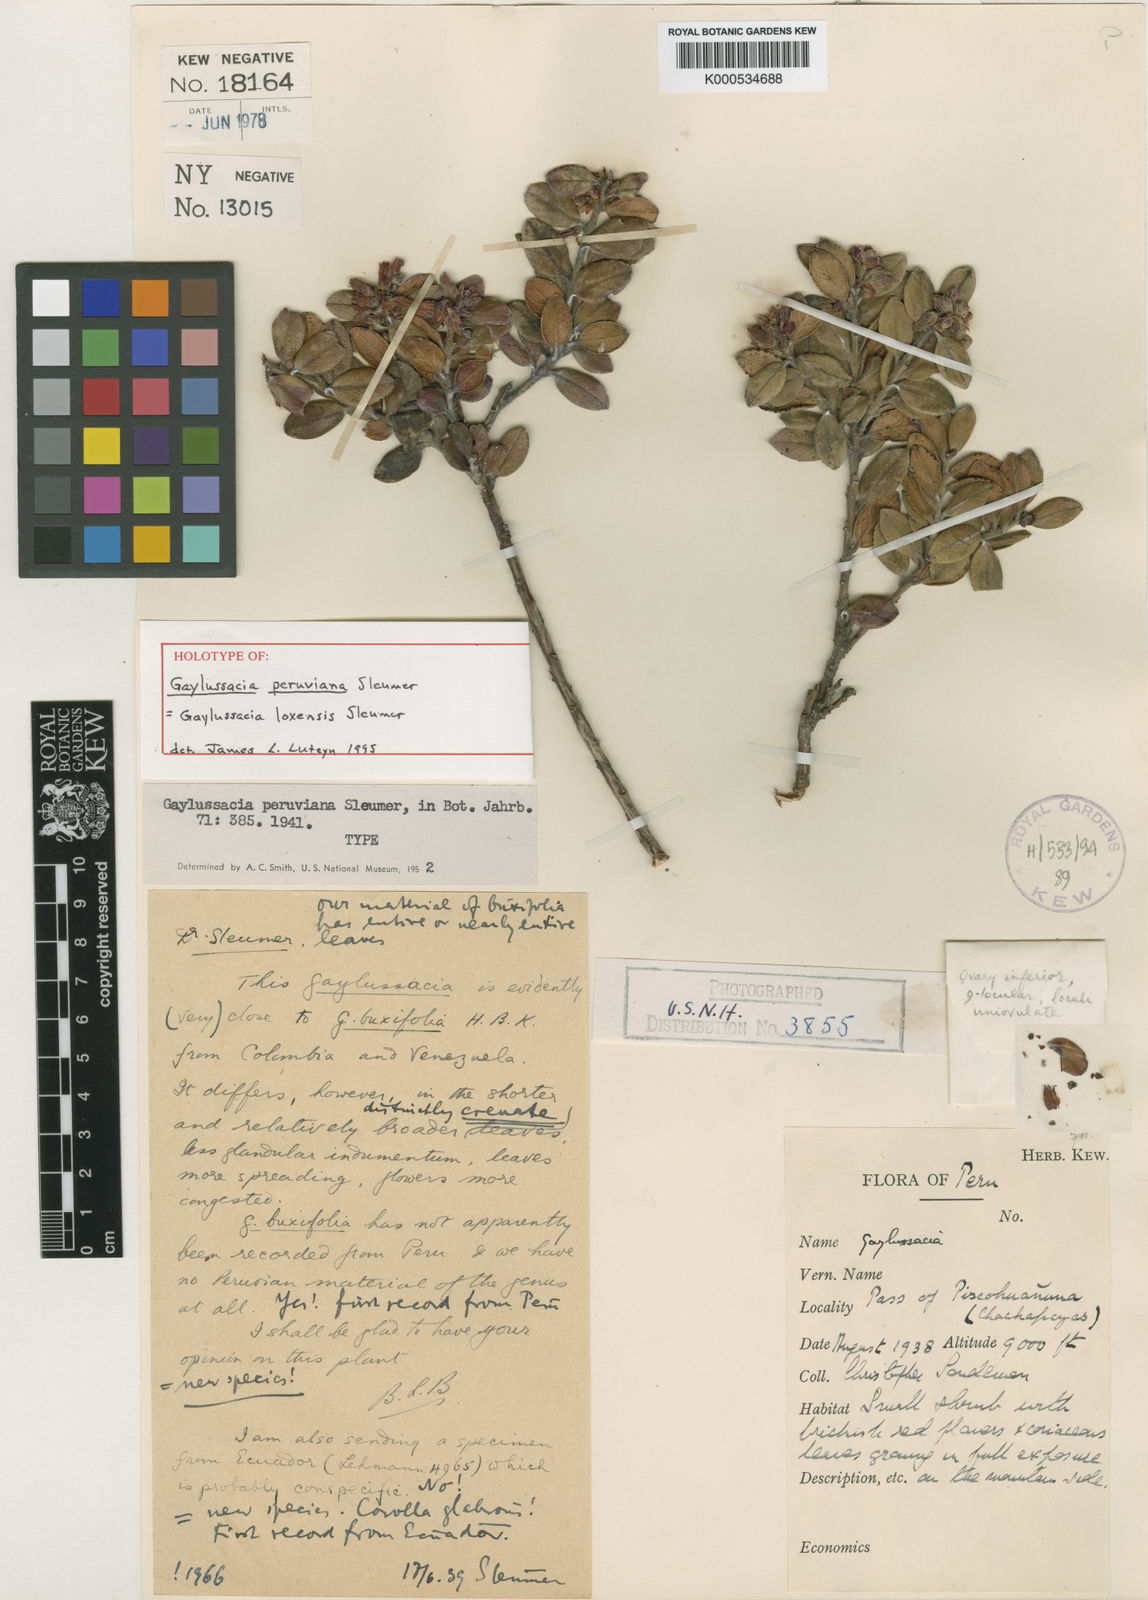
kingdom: Plantae
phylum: Tracheophyta
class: Magnoliopsida
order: Ericales
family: Ericaceae
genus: Gaylussacia
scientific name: Gaylussacia loxensis
